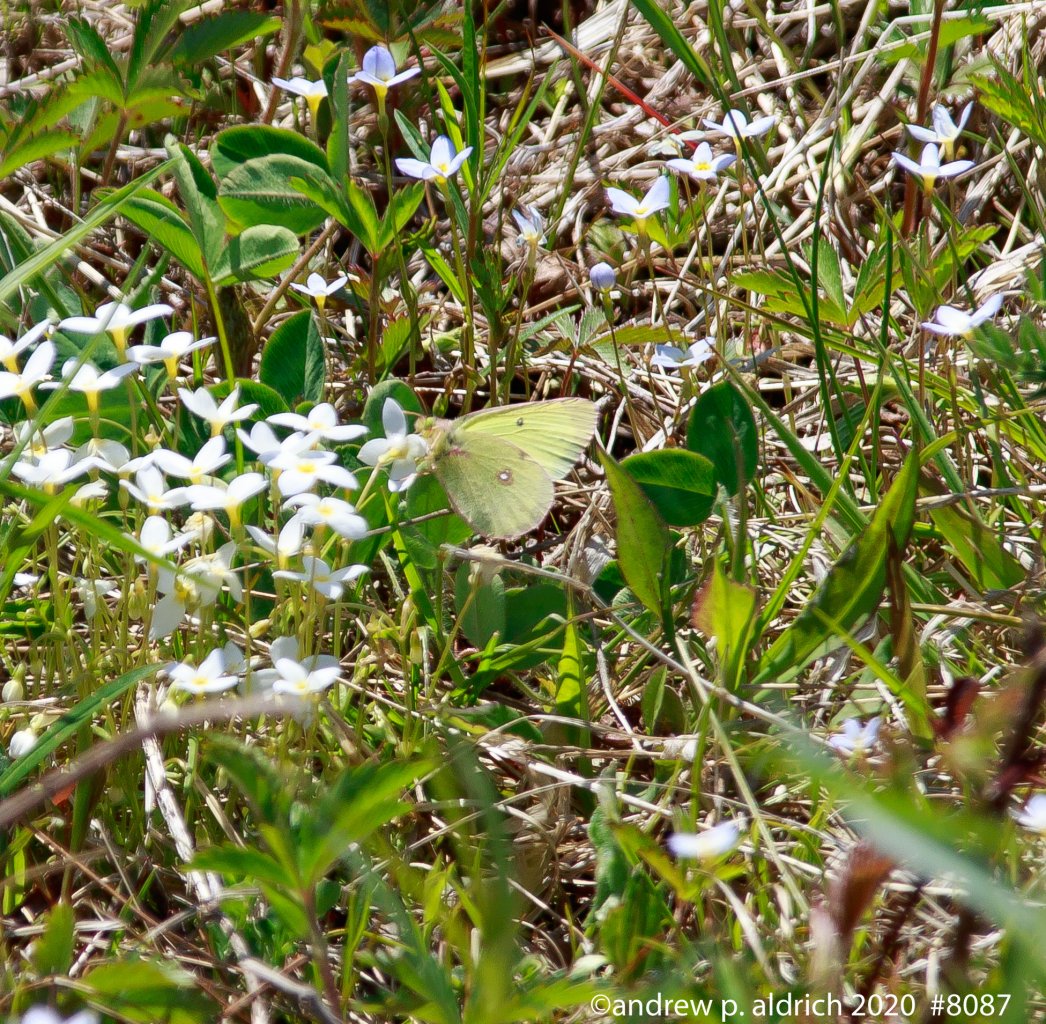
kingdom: Animalia
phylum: Arthropoda
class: Insecta
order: Lepidoptera
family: Pieridae
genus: Colias
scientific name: Colias
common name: Clouded Yellows
